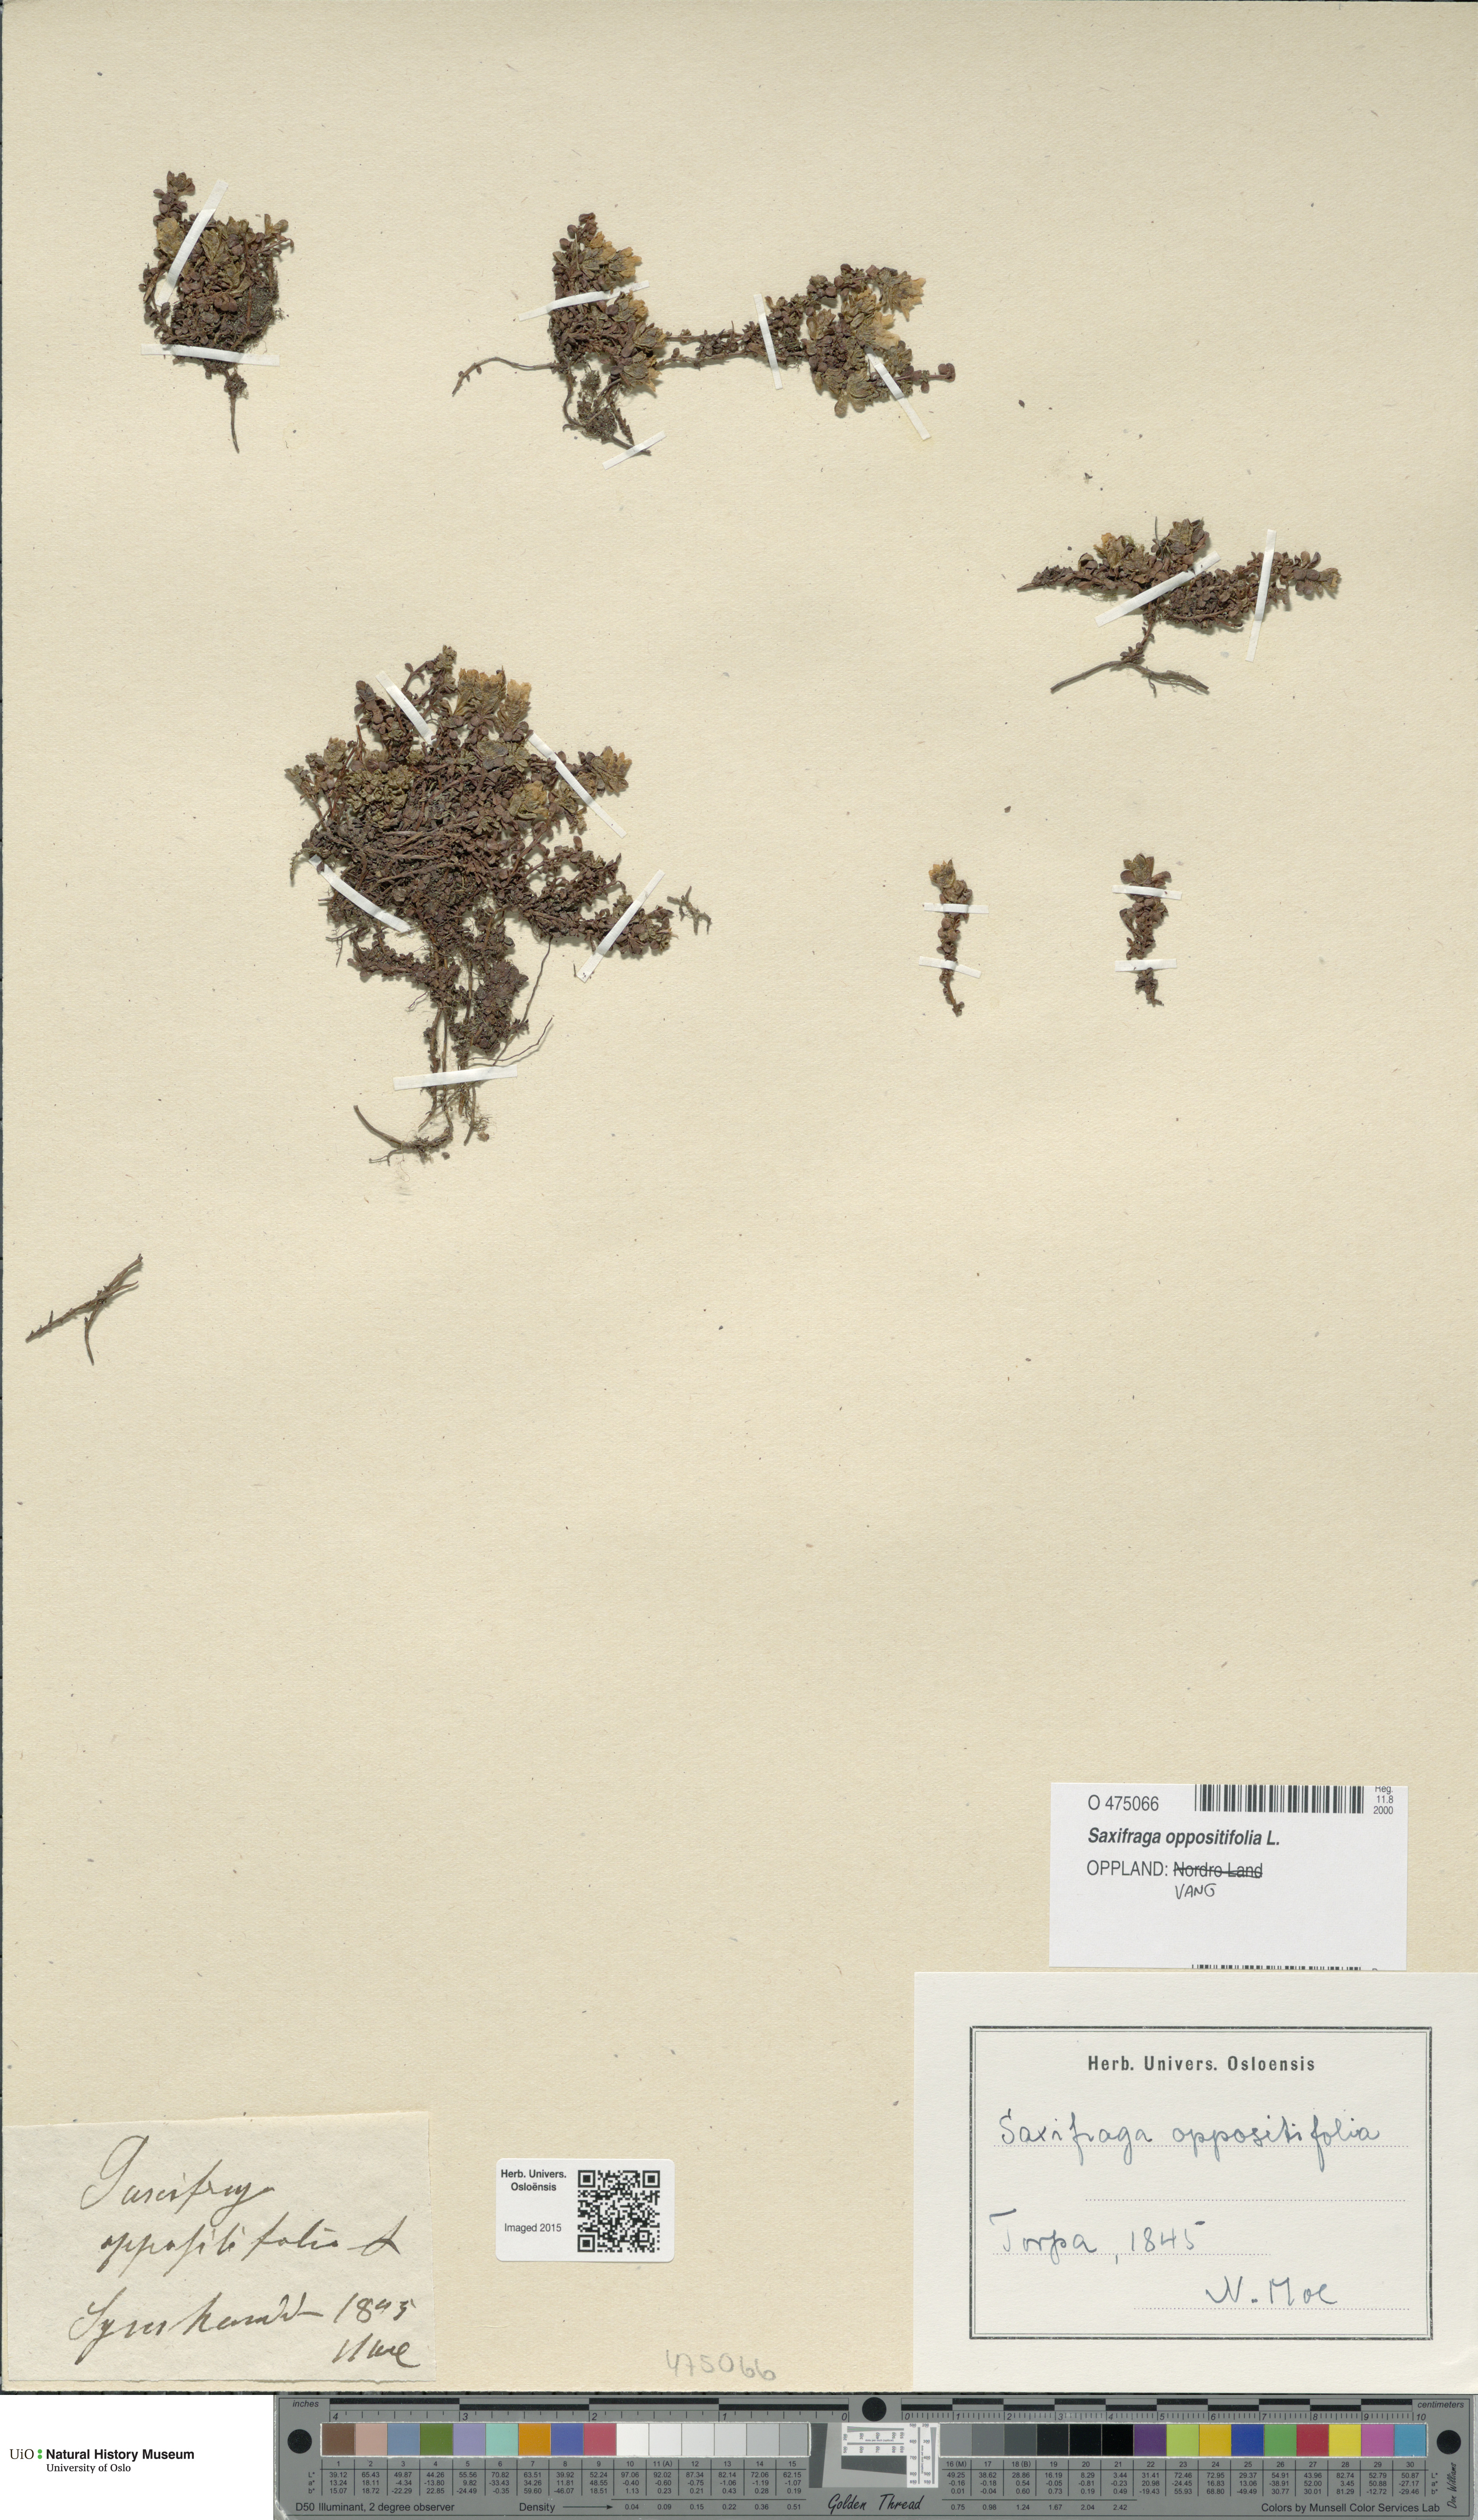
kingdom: Plantae
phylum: Tracheophyta
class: Magnoliopsida
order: Saxifragales
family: Saxifragaceae
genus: Saxifraga
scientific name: Saxifraga oppositifolia
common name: Purple saxifrage
